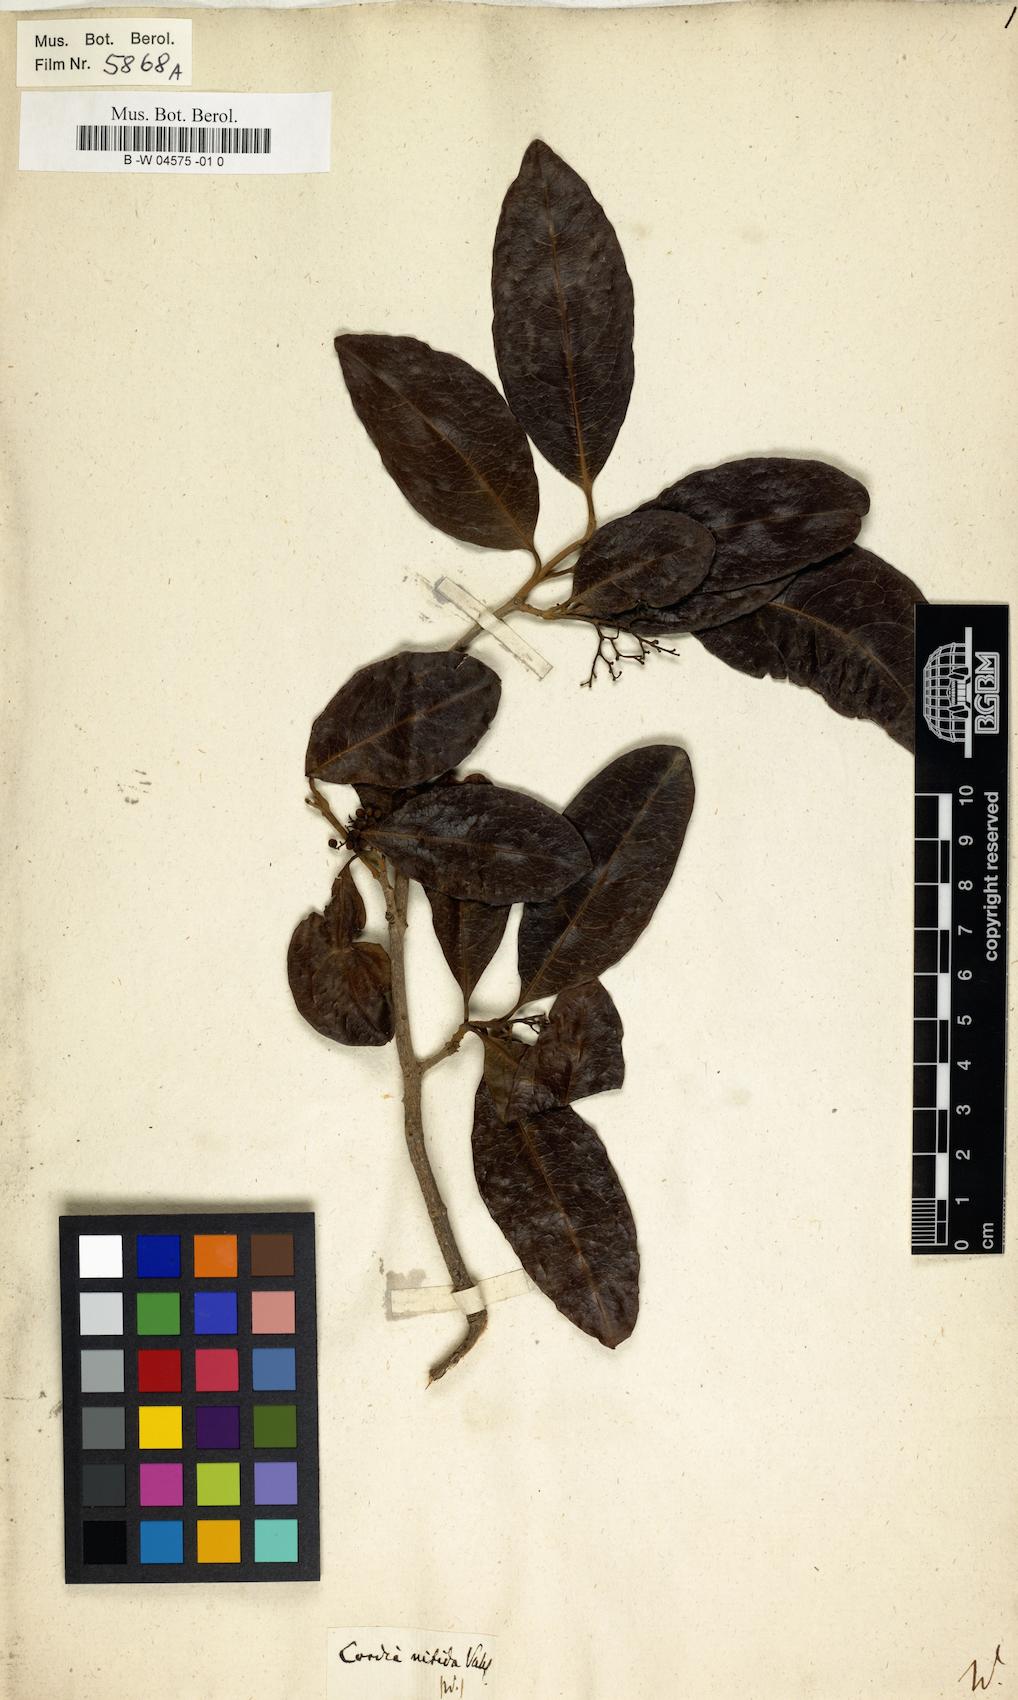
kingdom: Plantae
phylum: Tracheophyta
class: Magnoliopsida
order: Boraginales
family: Cordiaceae
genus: Cordia
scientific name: Cordia nitida
